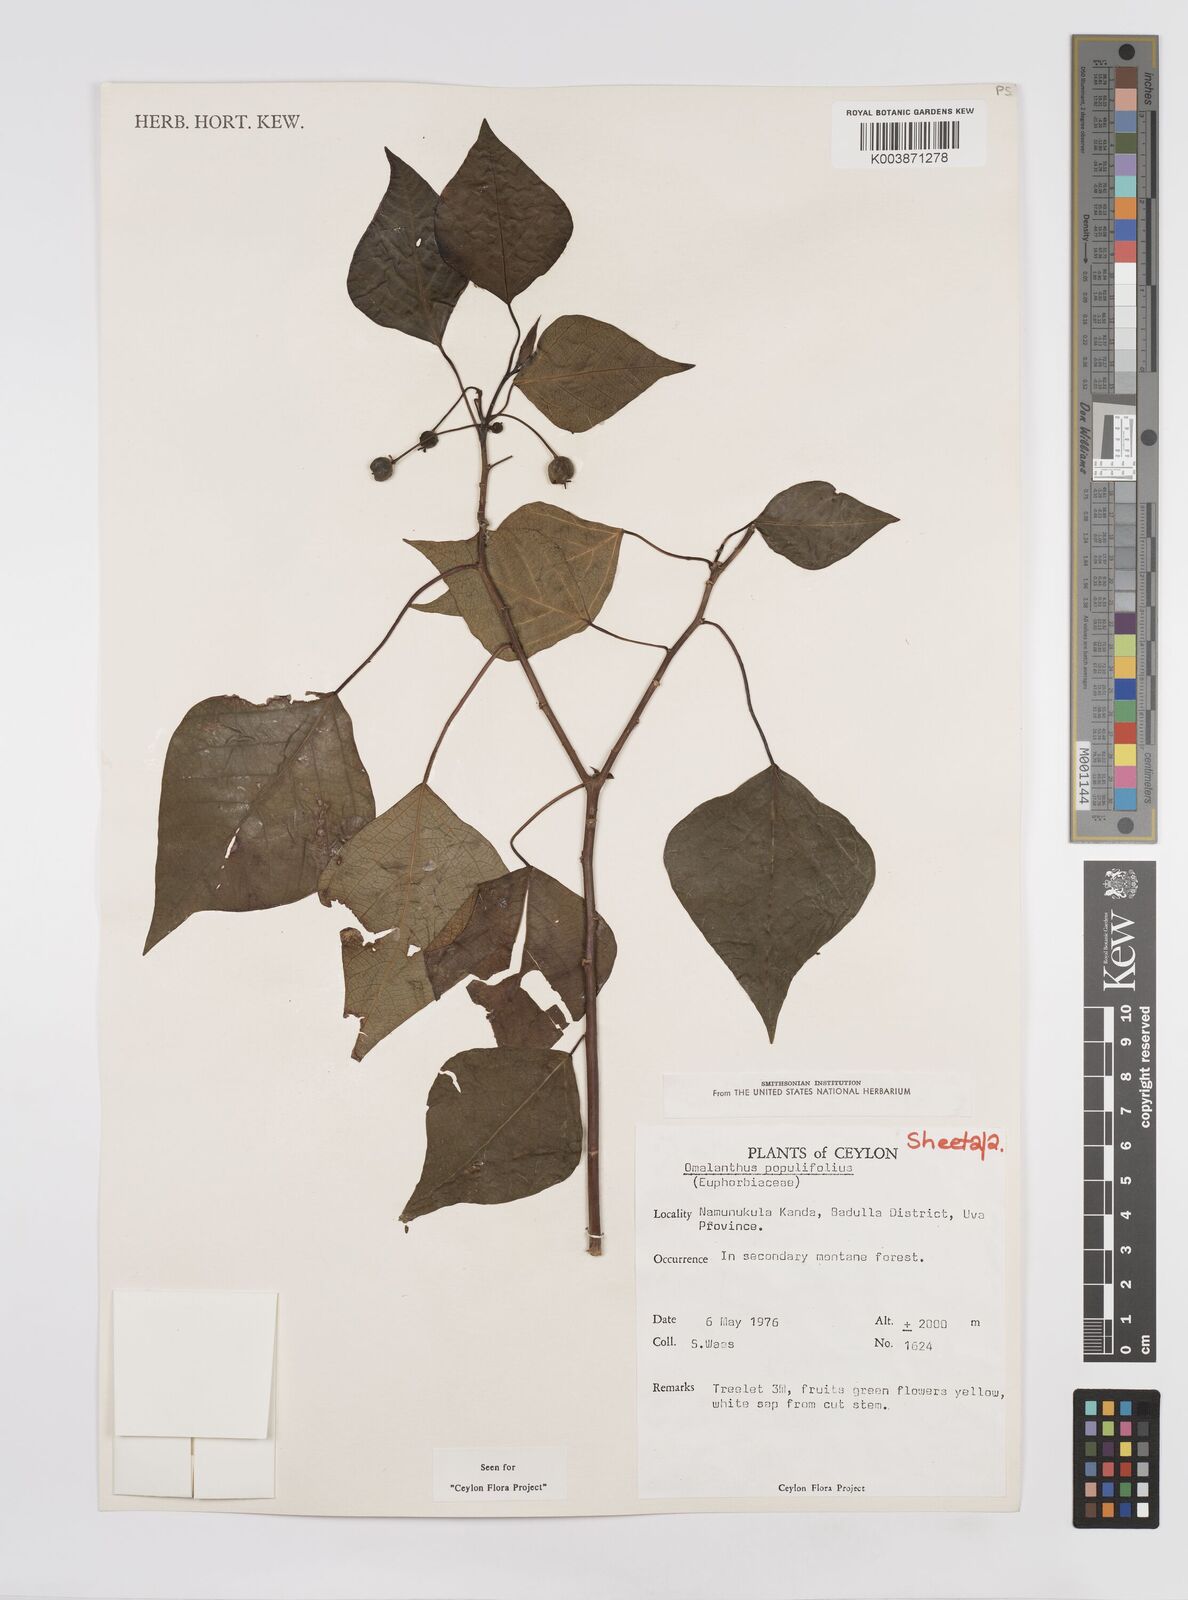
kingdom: Plantae
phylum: Tracheophyta
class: Magnoliopsida
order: Malpighiales
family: Euphorbiaceae
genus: Homalanthus
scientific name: Homalanthus populneus
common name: Spurge
